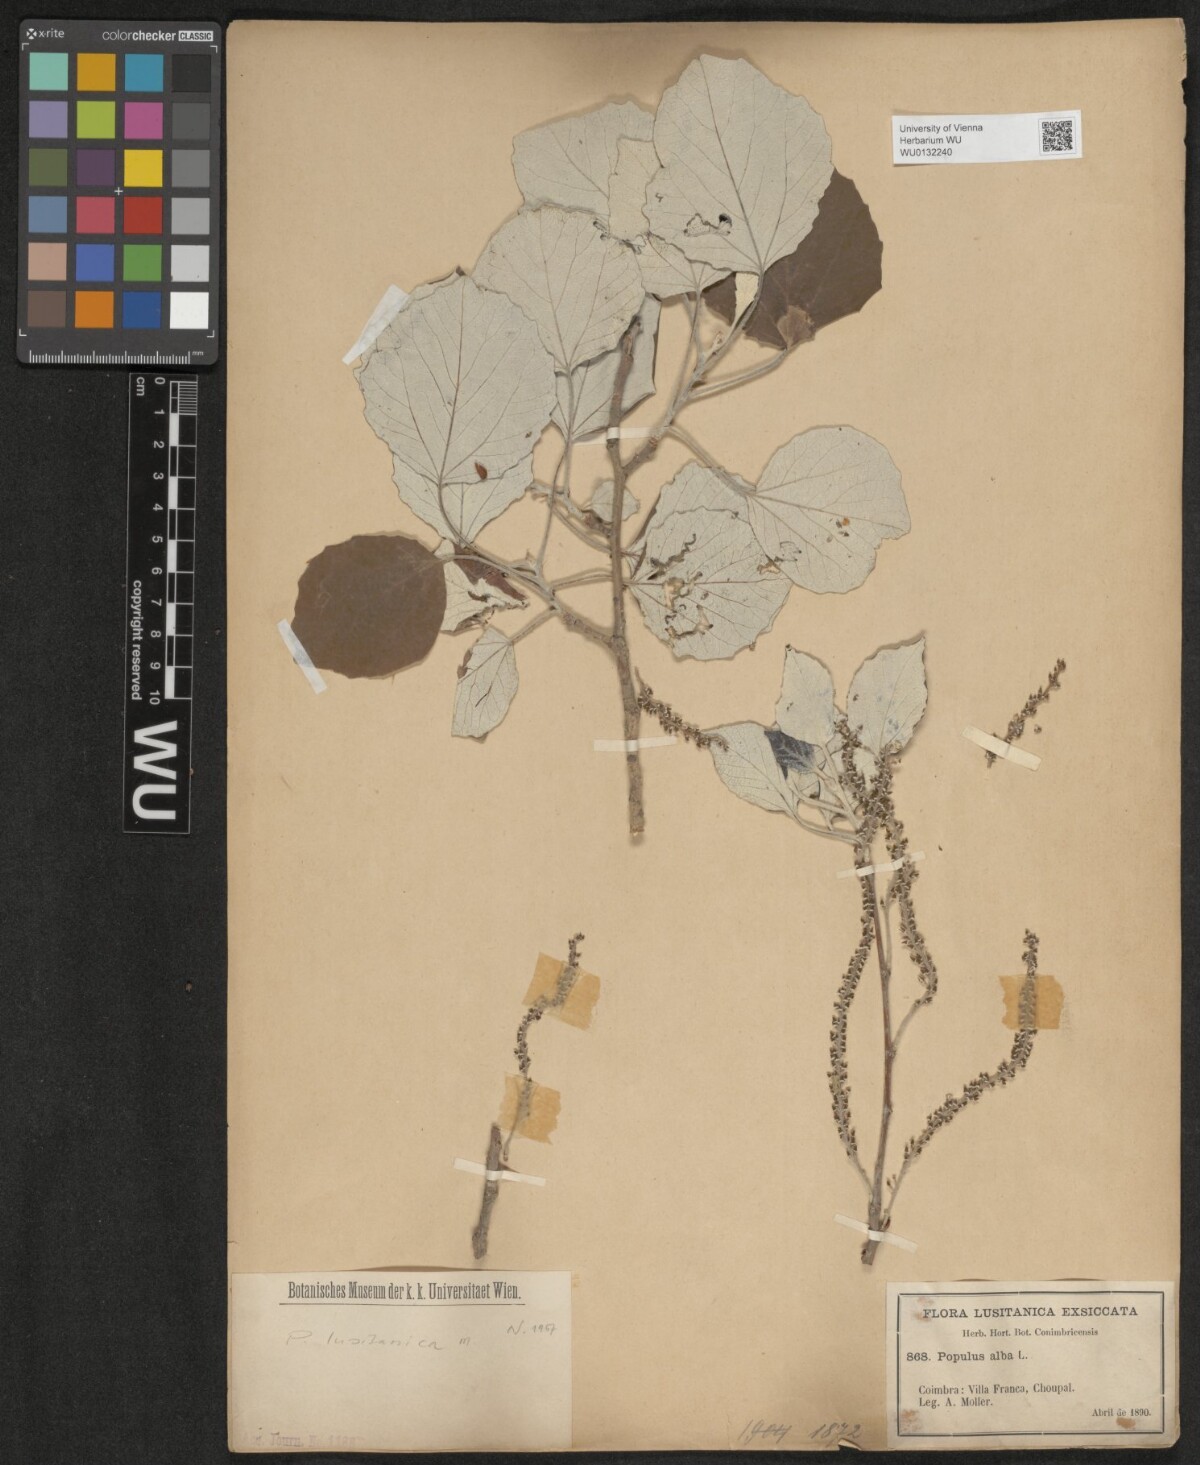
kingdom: Plantae
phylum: Tracheophyta
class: Magnoliopsida
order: Malpighiales
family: Salicaceae
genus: Populus
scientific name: Populus alba
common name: White poplar
